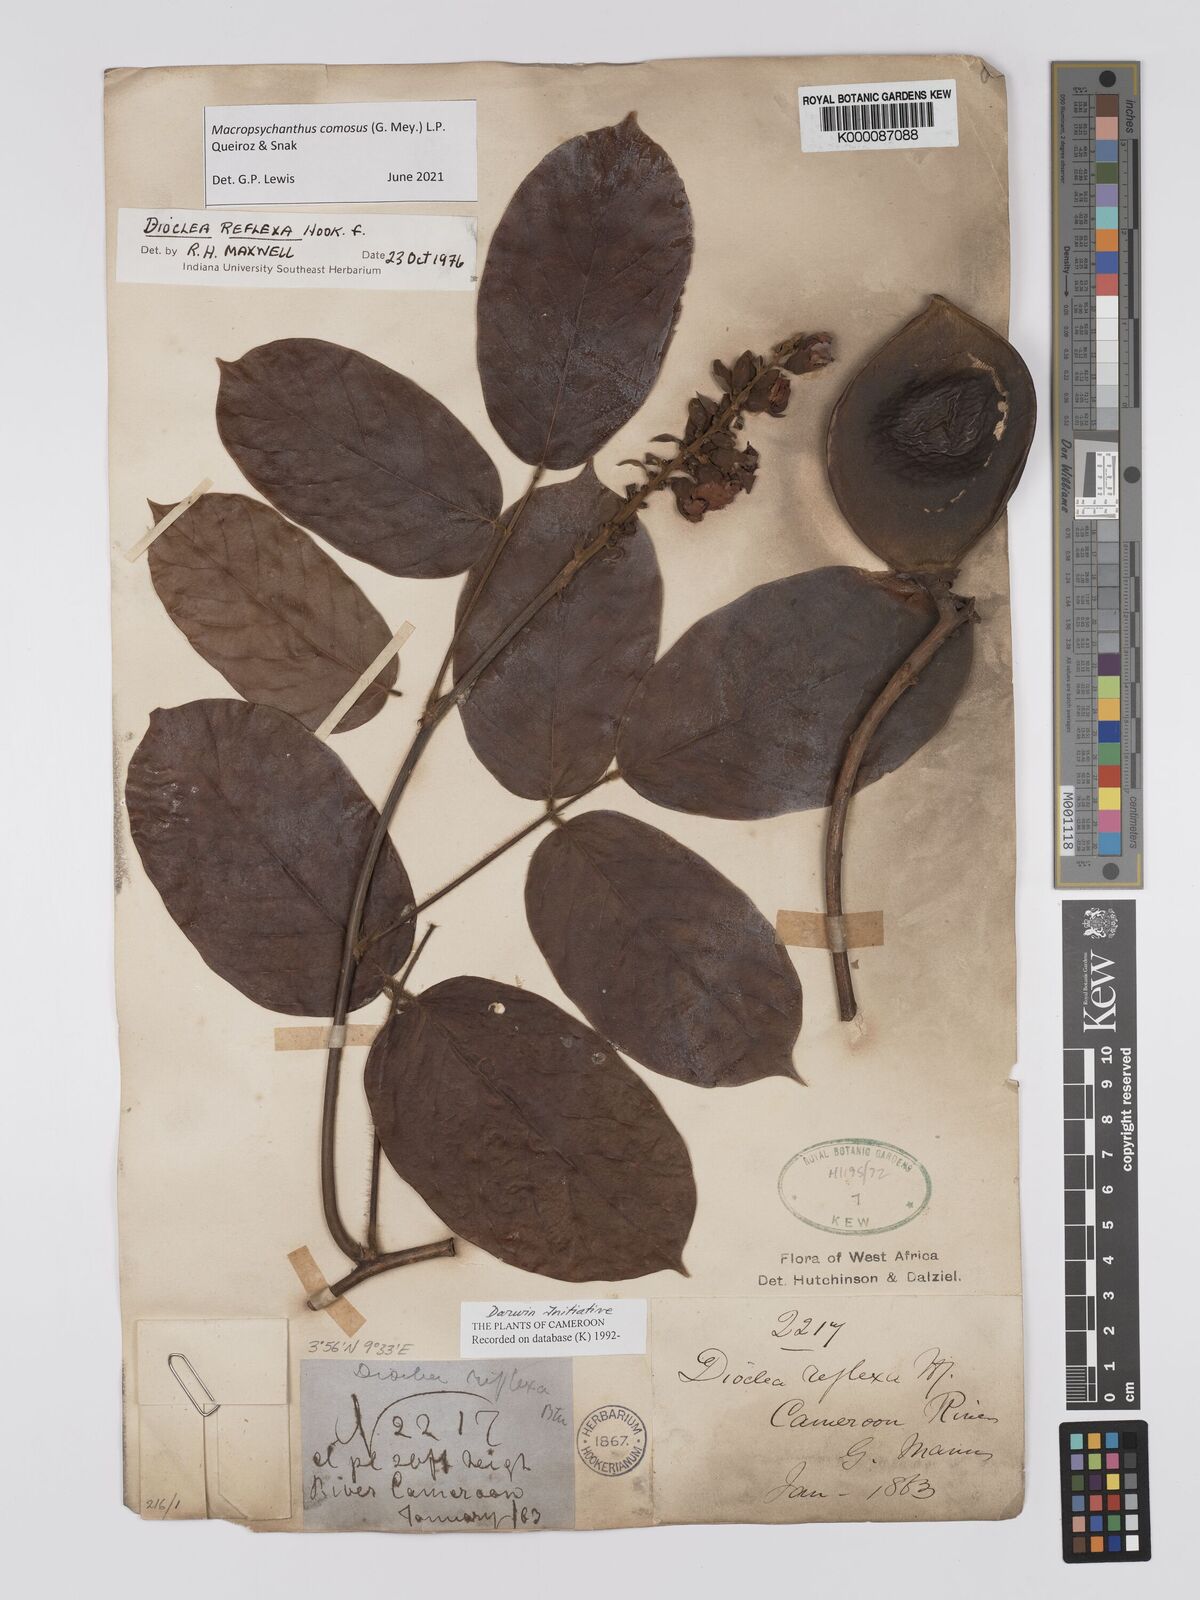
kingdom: Plantae
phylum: Tracheophyta
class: Magnoliopsida
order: Fabales
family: Fabaceae
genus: Macropsychanthus
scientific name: Macropsychanthus comosus
